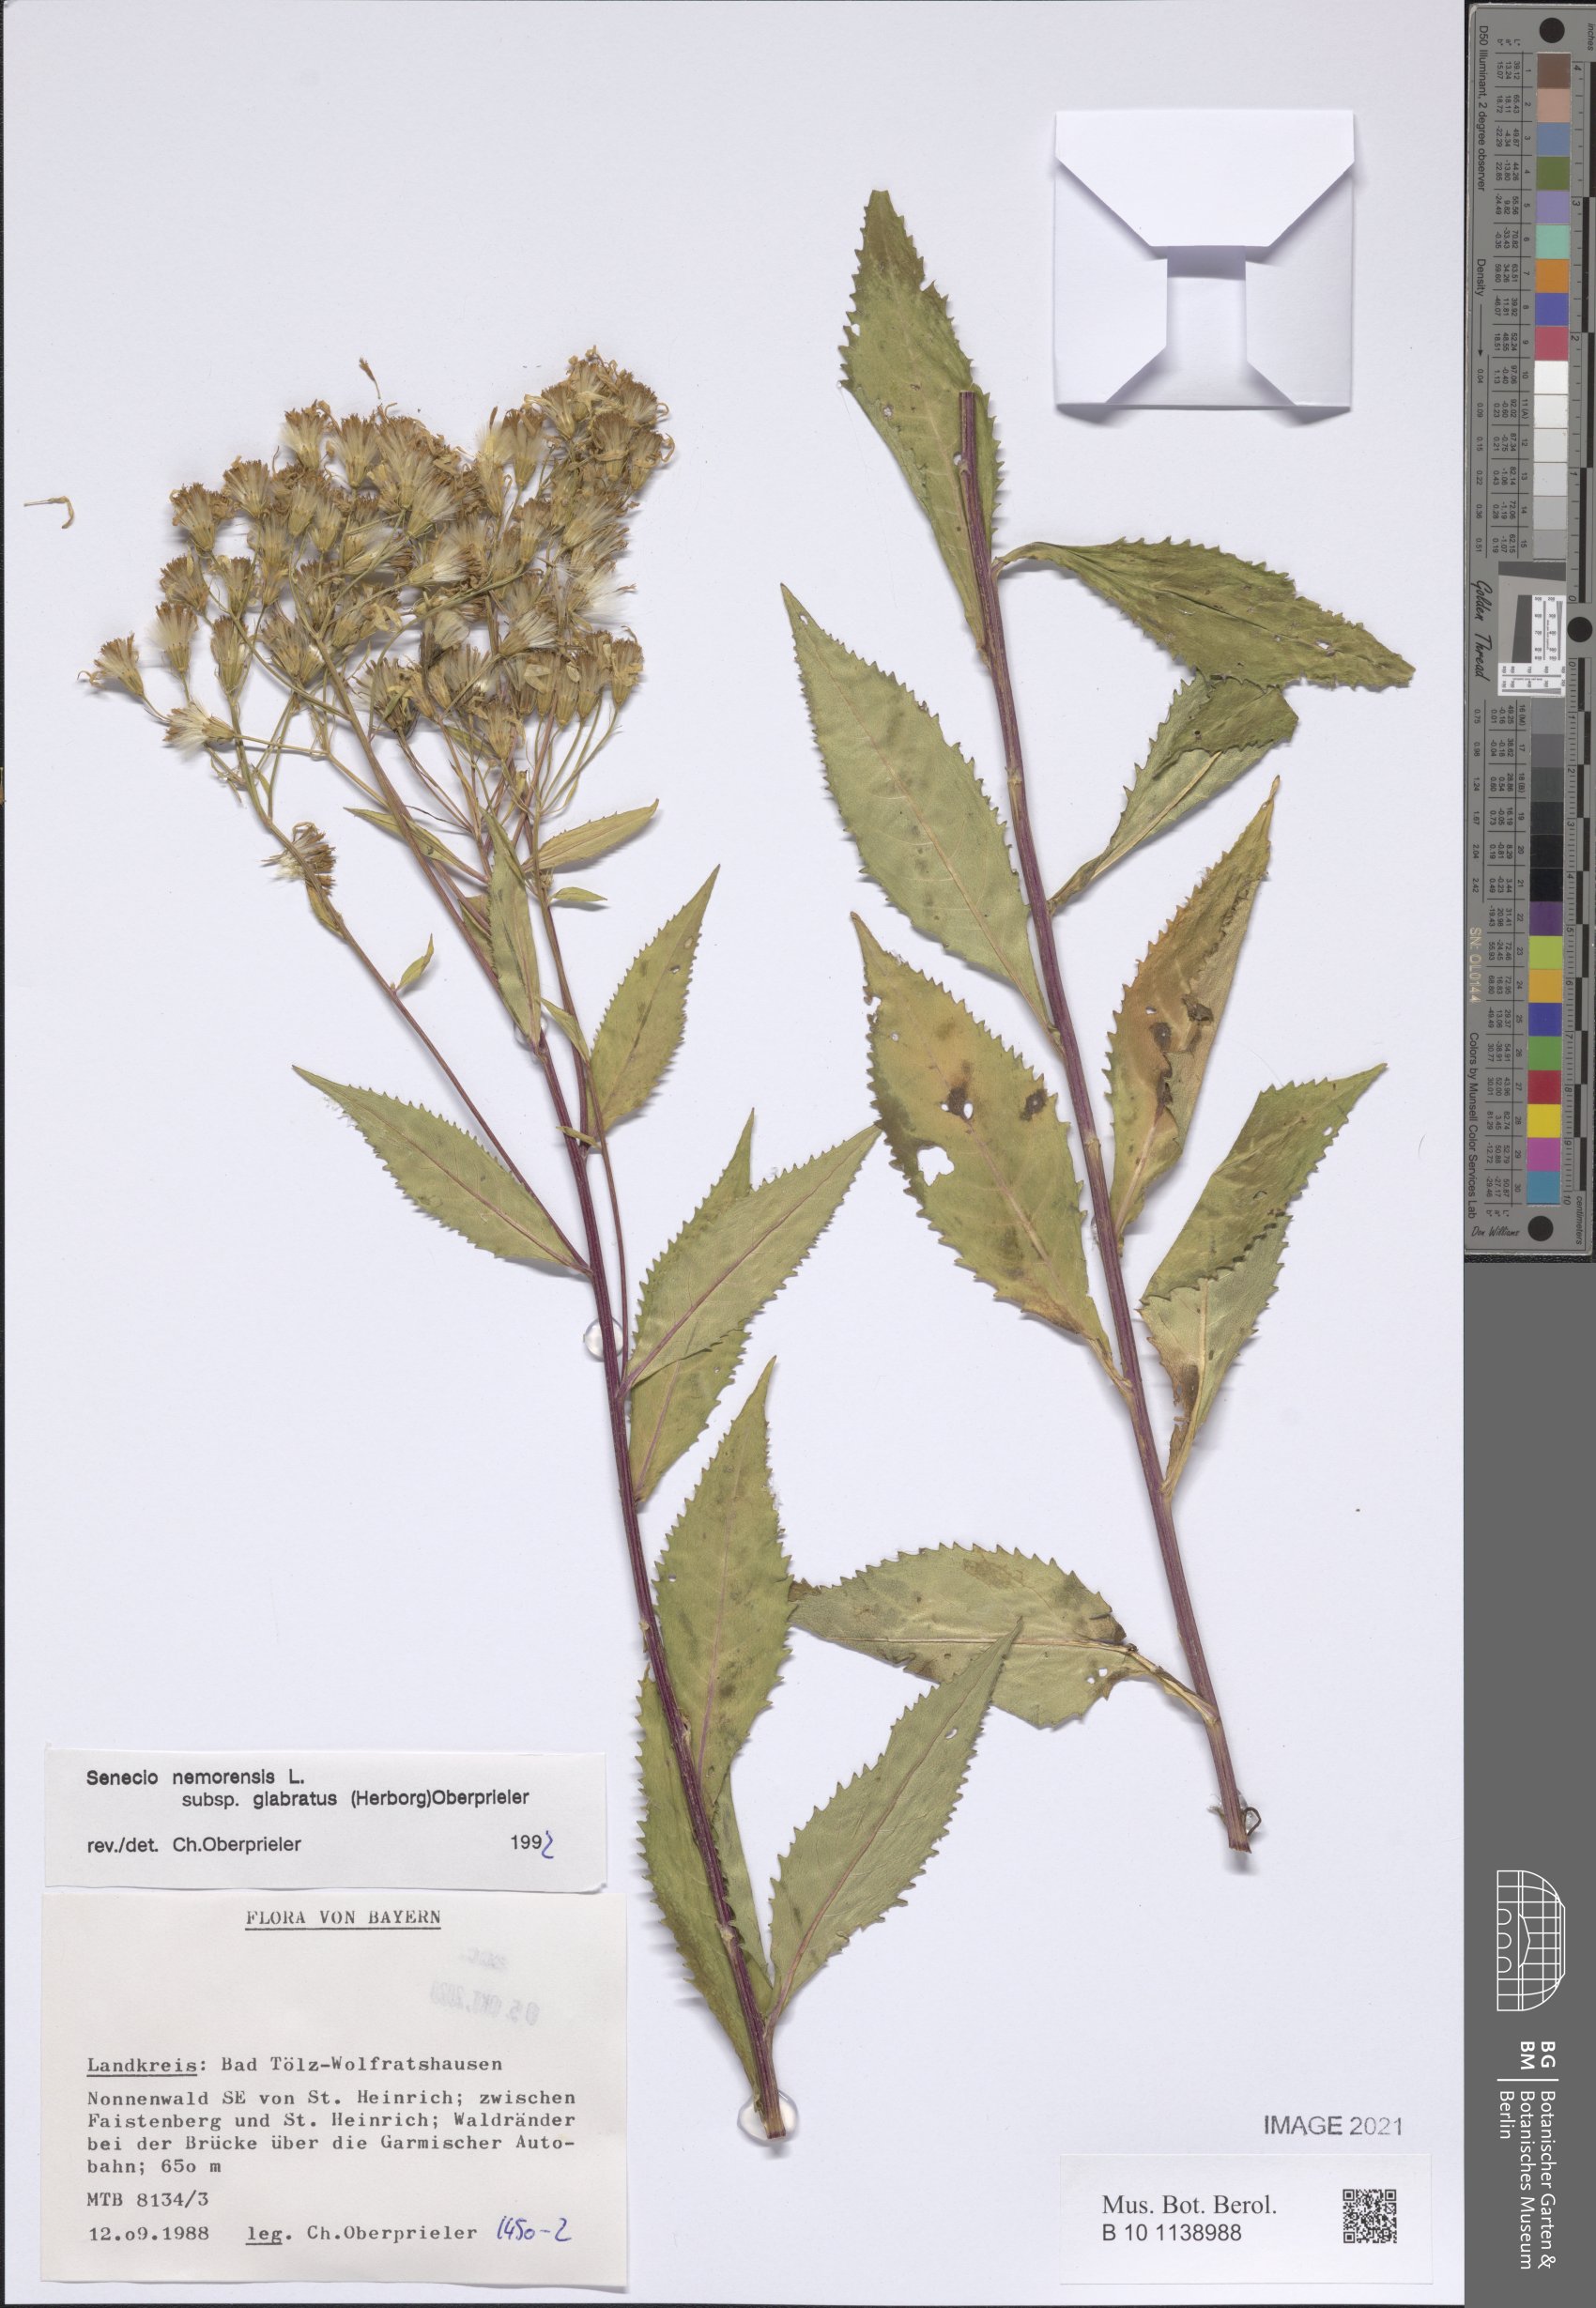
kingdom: Plantae
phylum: Tracheophyta
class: Magnoliopsida
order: Asterales
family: Asteraceae
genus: Senecio
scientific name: Senecio germanicus
